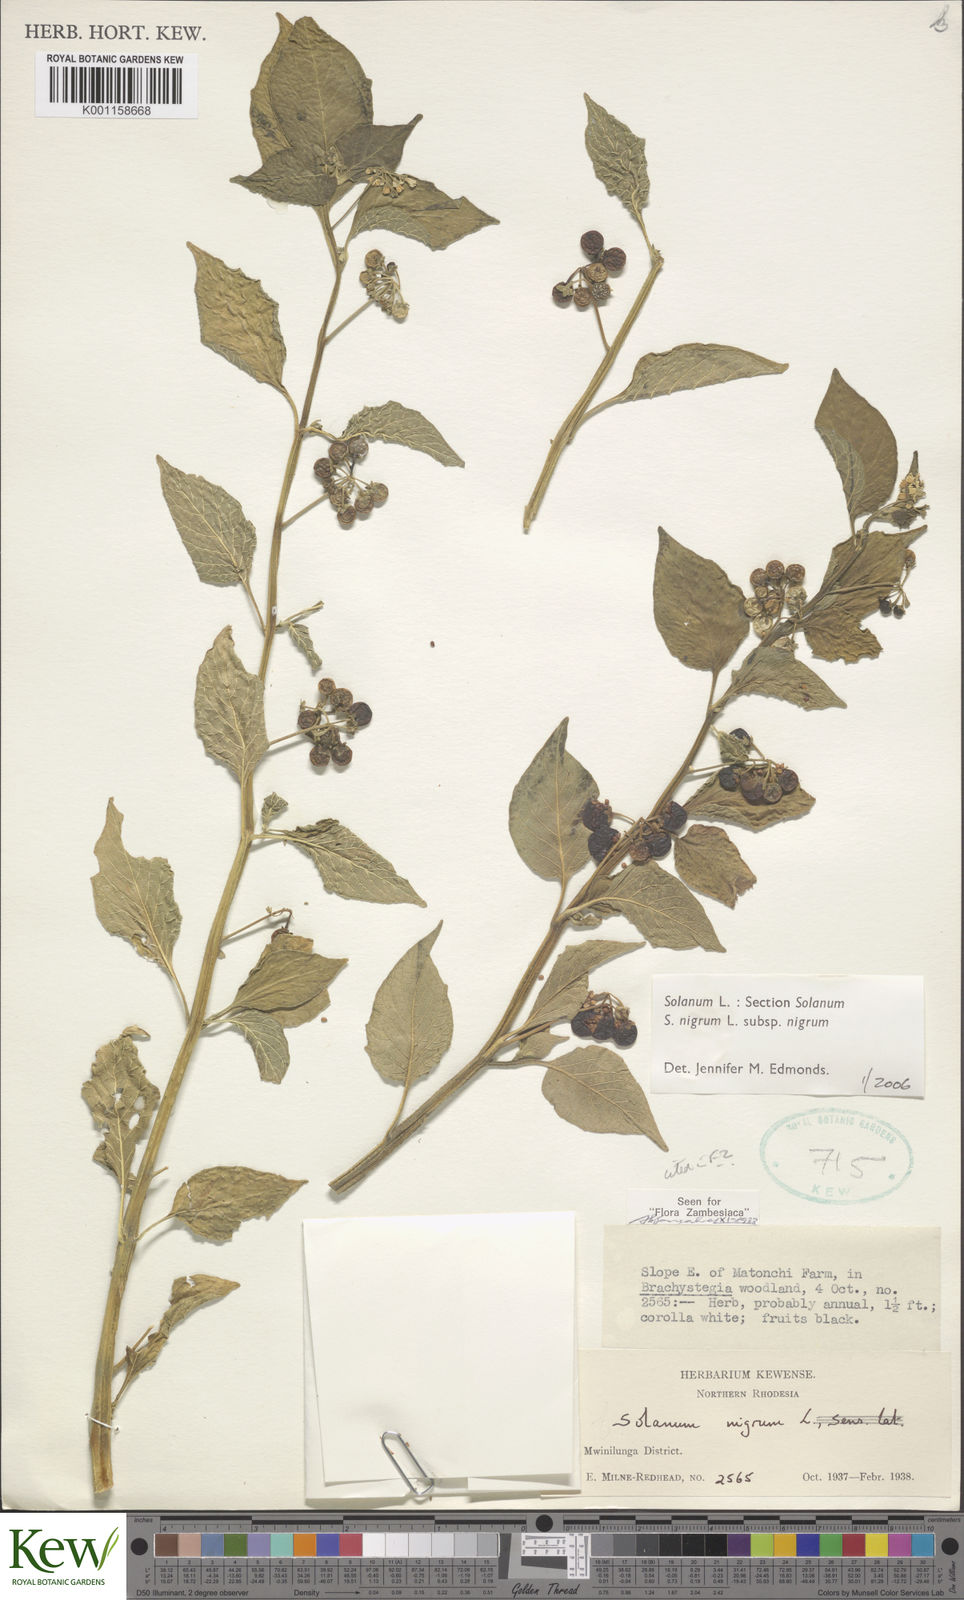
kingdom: Plantae
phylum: Tracheophyta
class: Magnoliopsida
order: Solanales
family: Solanaceae
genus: Solanum
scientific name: Solanum nigrum
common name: Black nightshade
